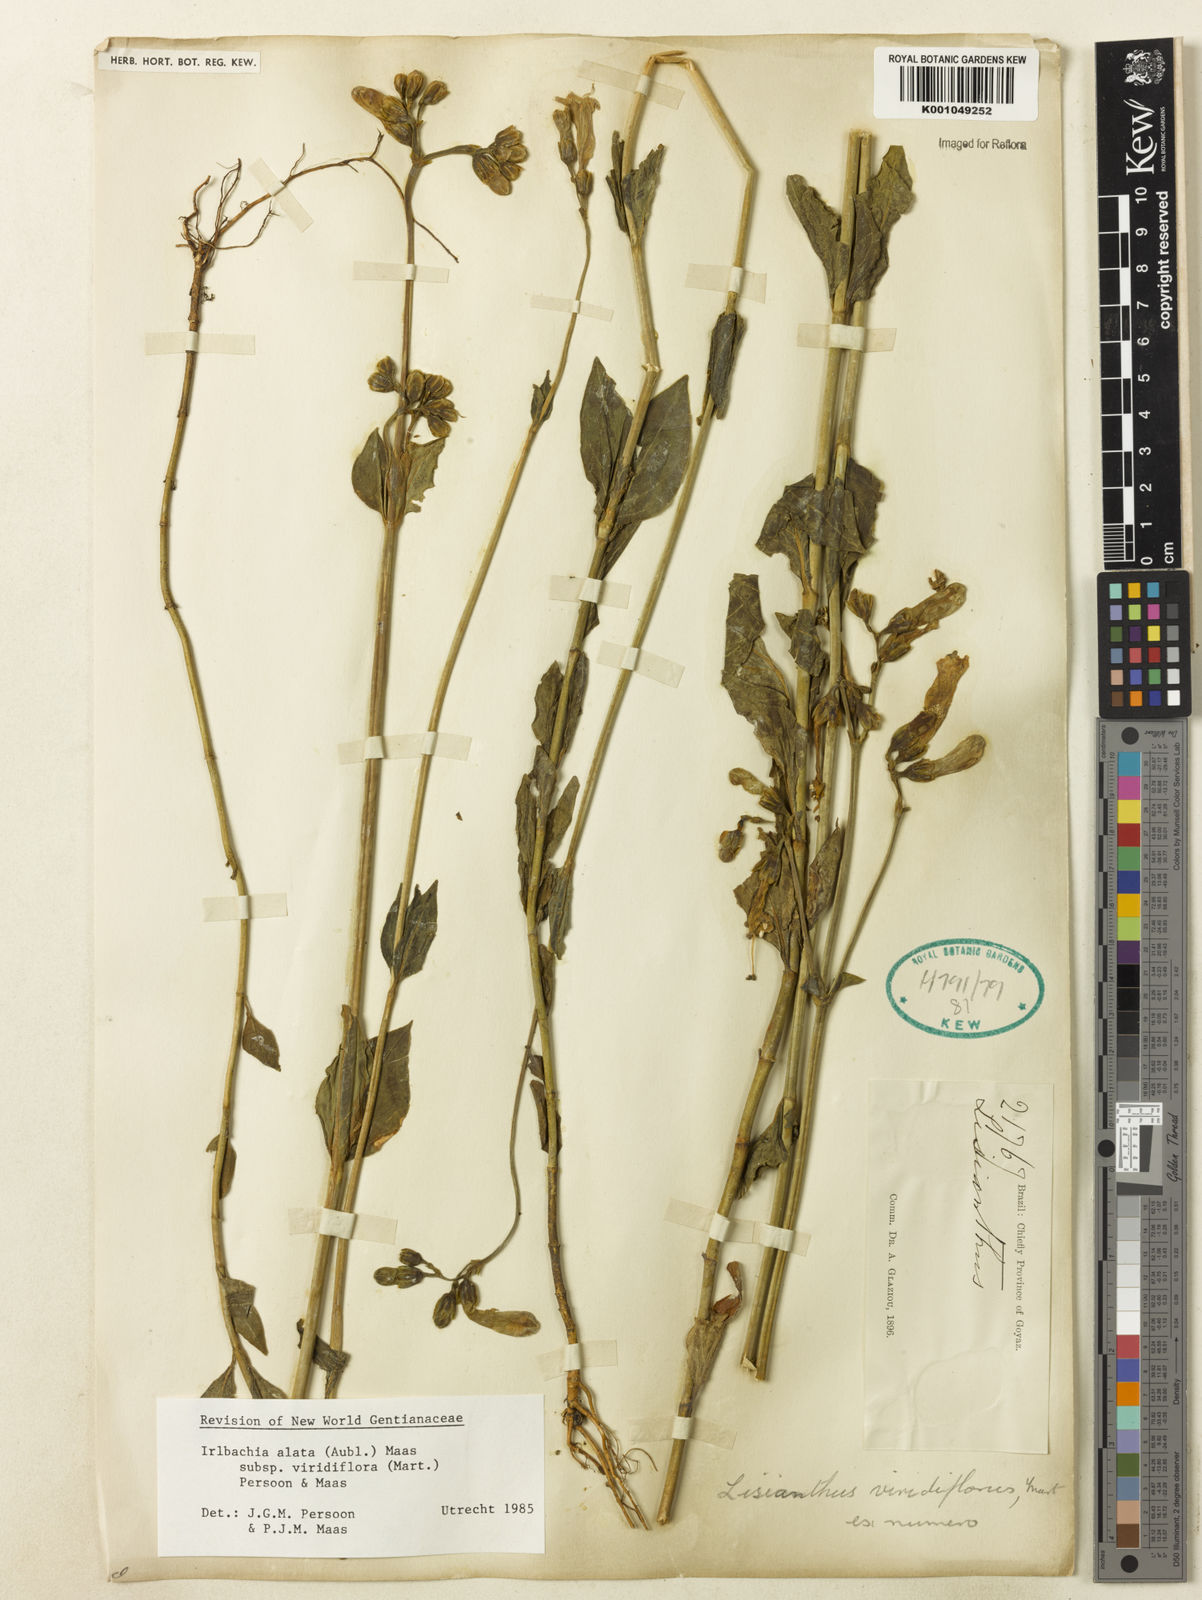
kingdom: Plantae
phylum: Tracheophyta
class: Magnoliopsida
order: Gentianales
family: Gentianaceae
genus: Chelonanthus
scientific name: Chelonanthus viridiflorus
